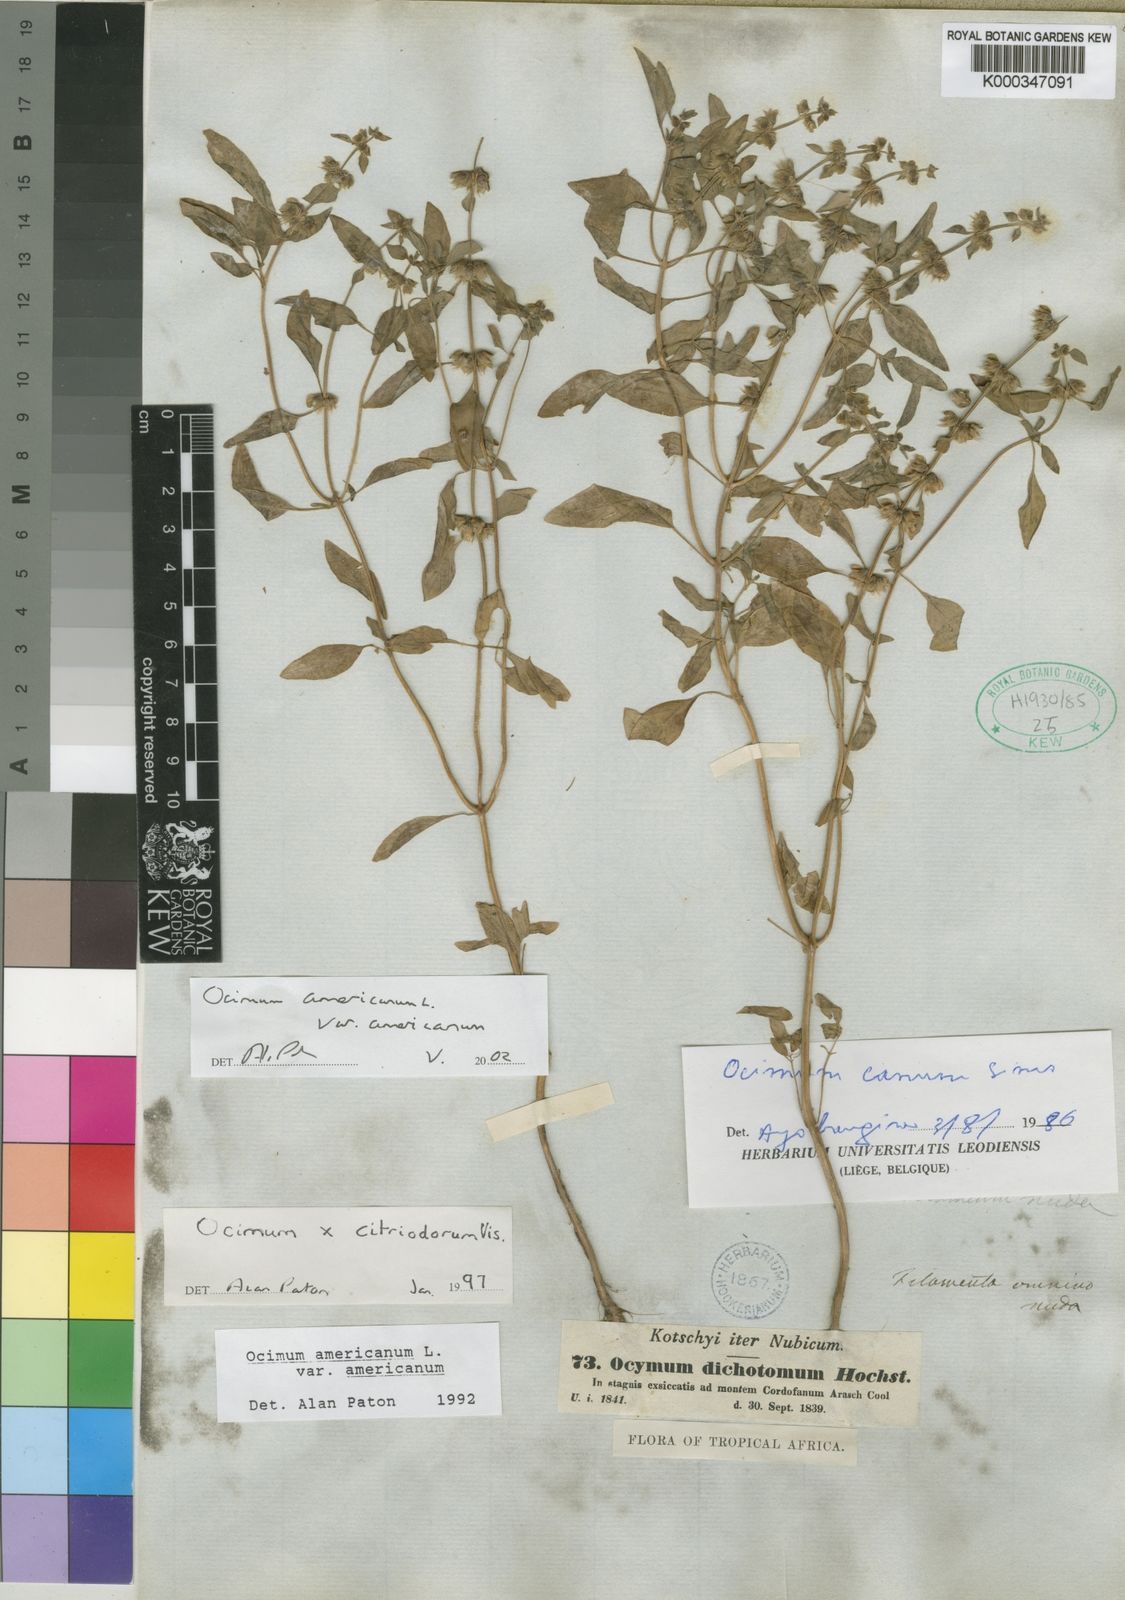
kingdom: Plantae
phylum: Tracheophyta
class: Magnoliopsida
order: Lamiales
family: Lamiaceae
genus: Ocimum
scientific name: Ocimum americanum
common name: American basil
